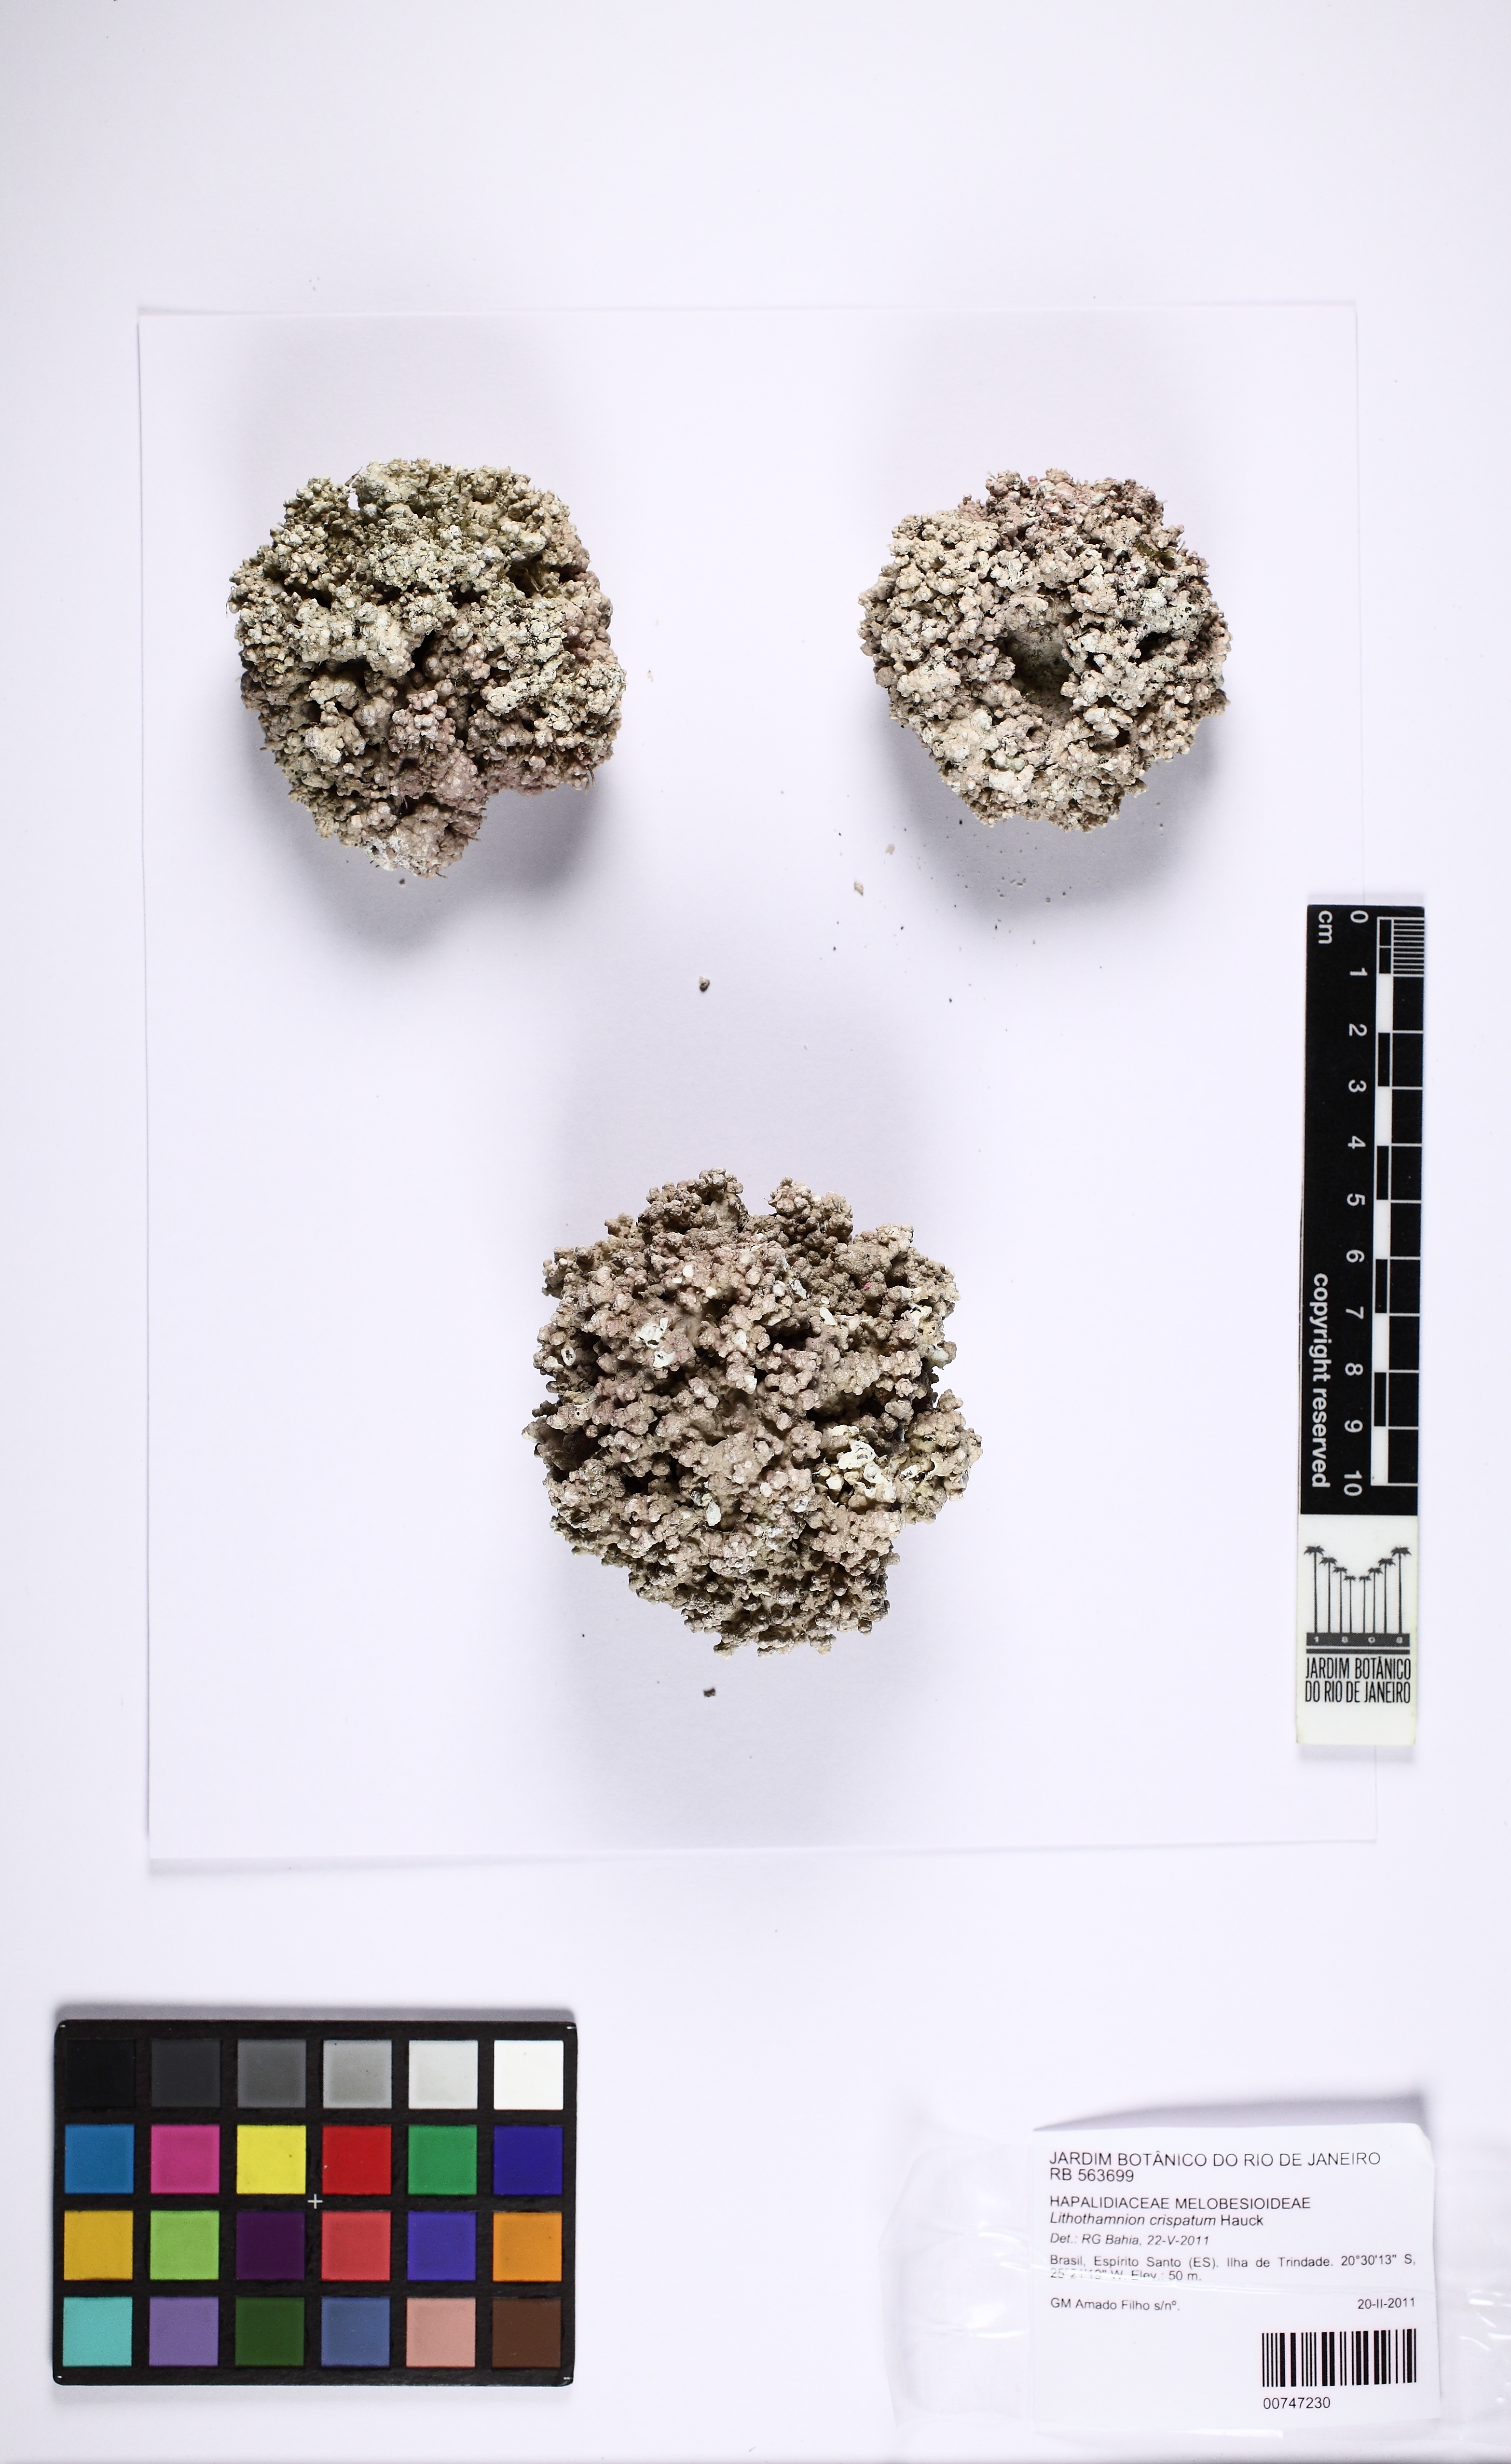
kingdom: Plantae
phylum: Rhodophyta
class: Florideophyceae
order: Corallinales
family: Hapalidiaceae
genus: Lithothamnion
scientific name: Lithothamnion crispatum
